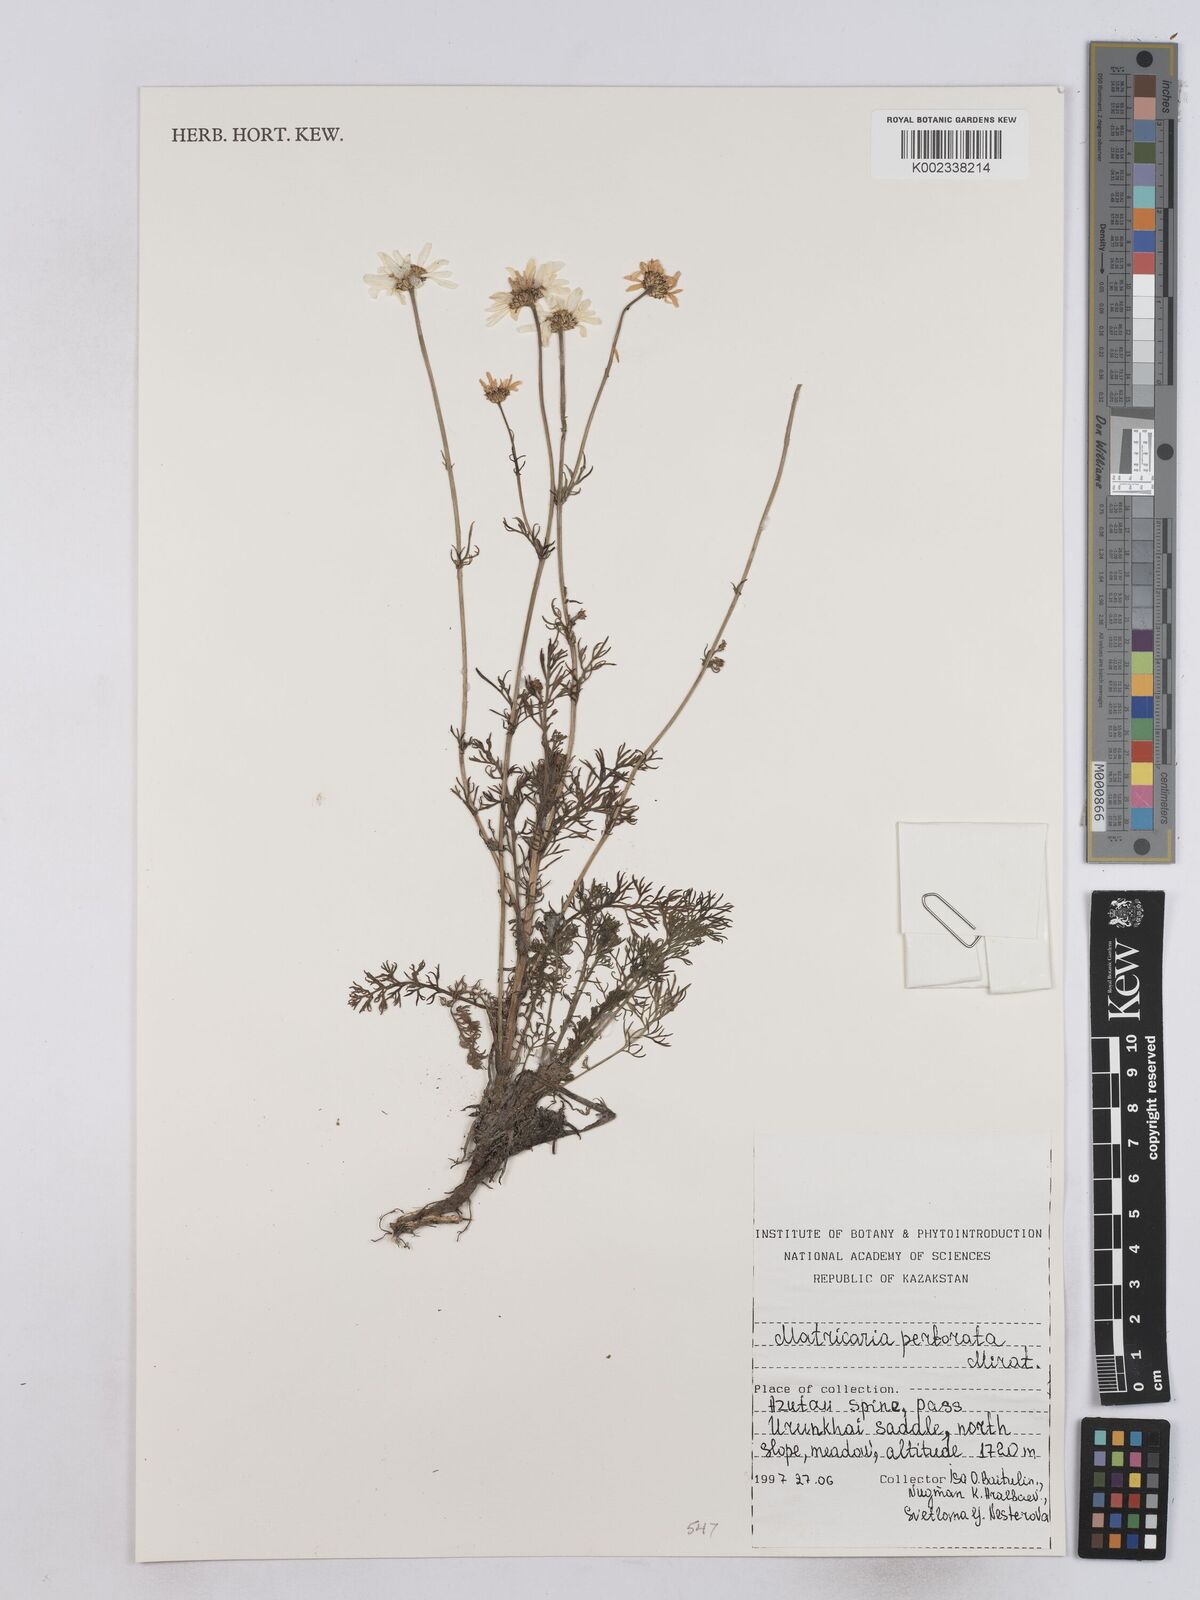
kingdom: Plantae
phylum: Tracheophyta
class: Magnoliopsida
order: Asterales
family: Asteraceae
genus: Tripleurospermum
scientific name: Tripleurospermum inodorum
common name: Scentless mayweed
